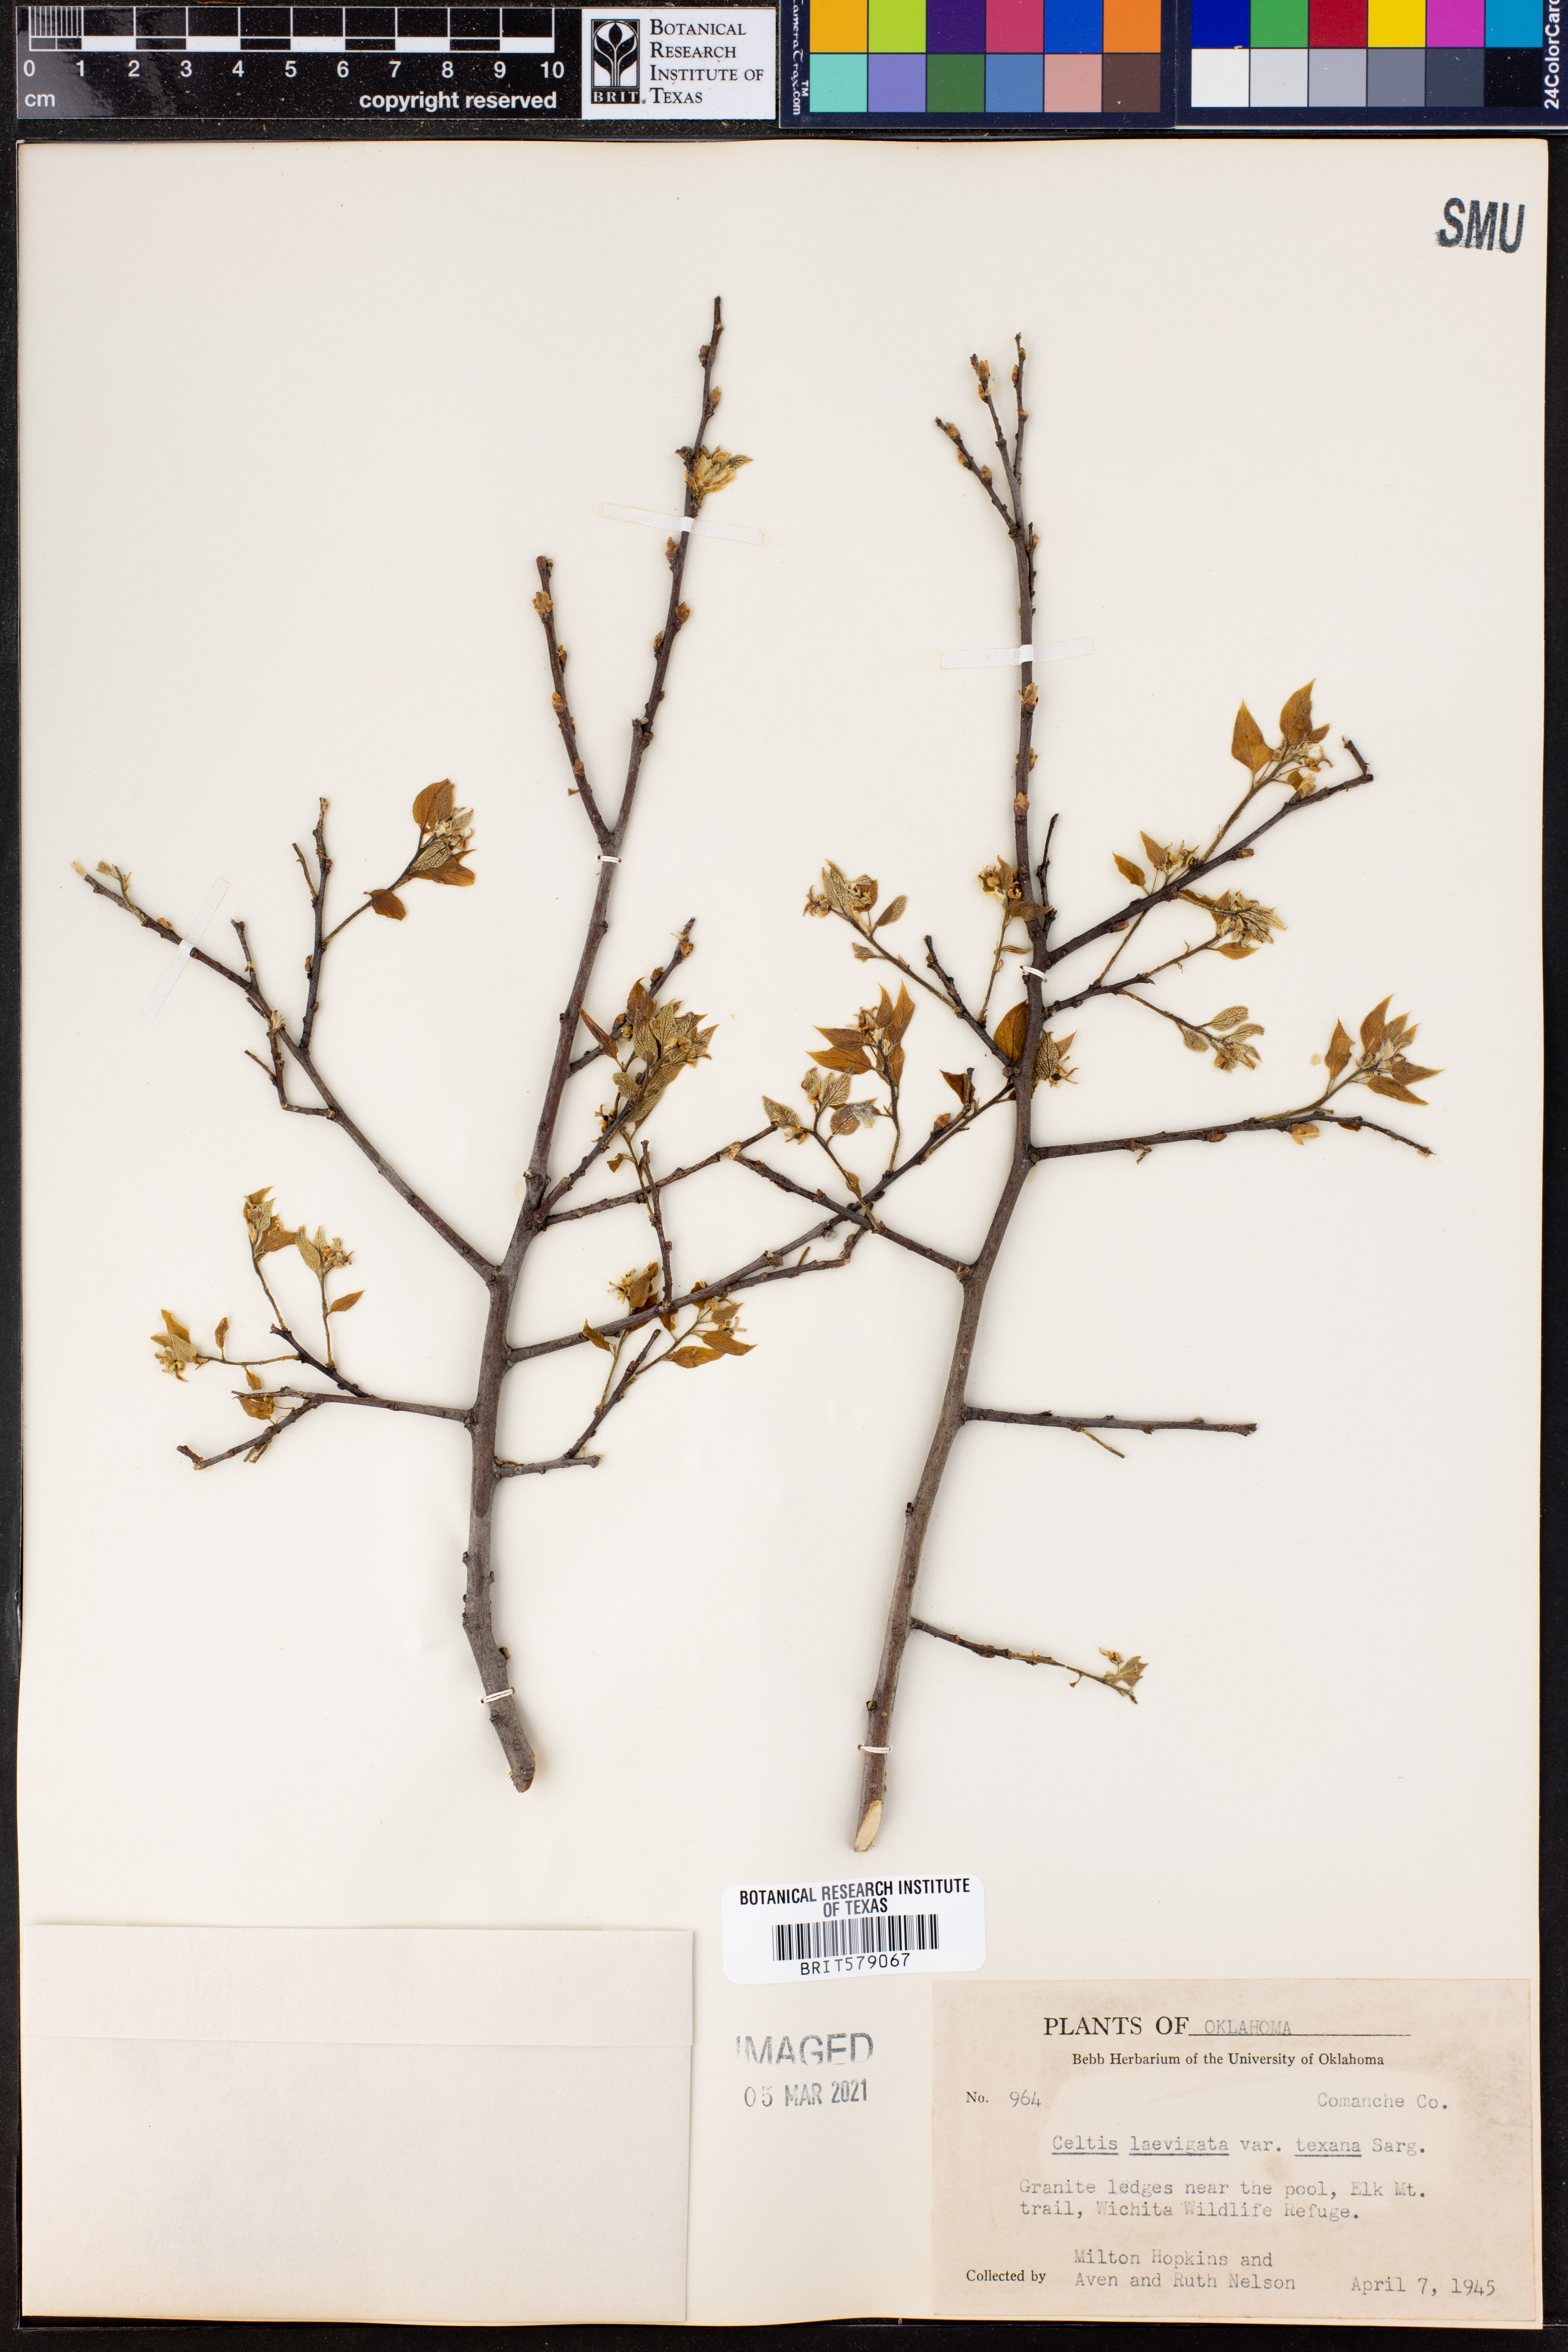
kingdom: Plantae
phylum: Tracheophyta
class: Magnoliopsida
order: Rosales
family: Cannabaceae
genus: Celtis
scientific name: Celtis laevigata
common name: Sugarberry
